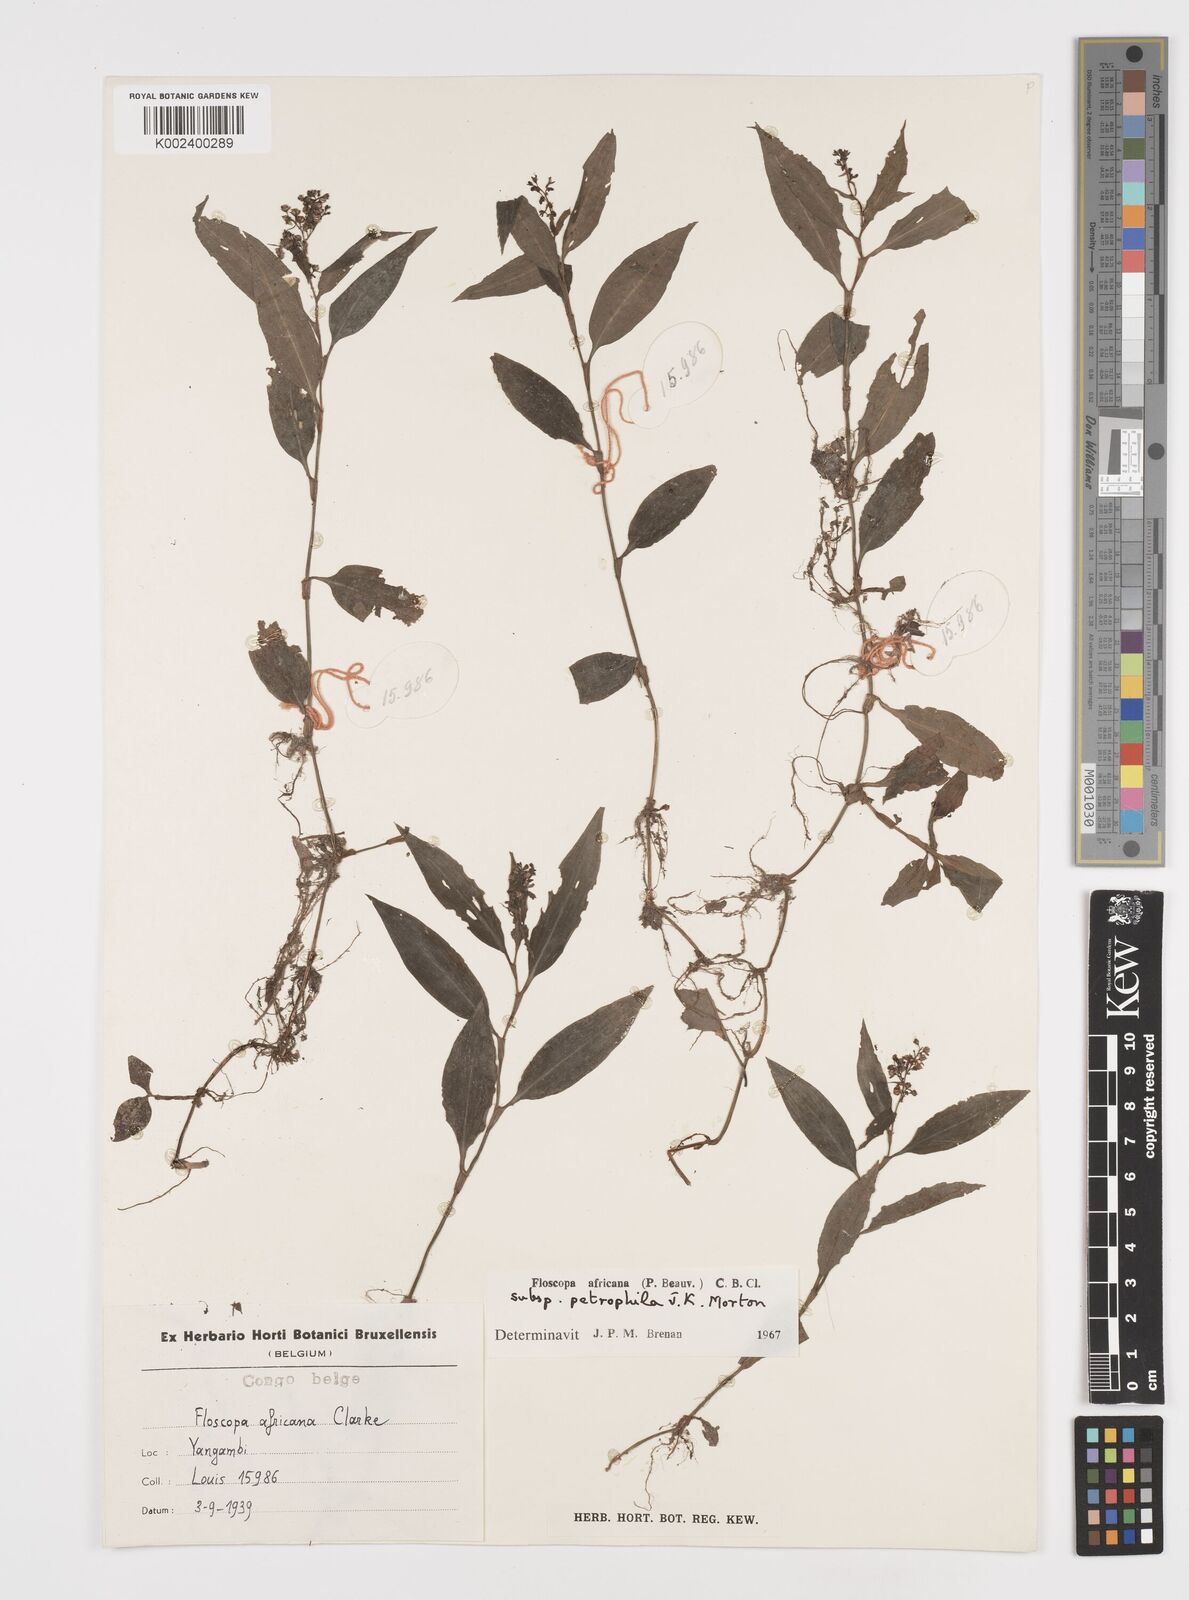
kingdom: Plantae
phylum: Tracheophyta
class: Liliopsida
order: Commelinales
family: Commelinaceae
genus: Floscopa
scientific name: Floscopa africana
